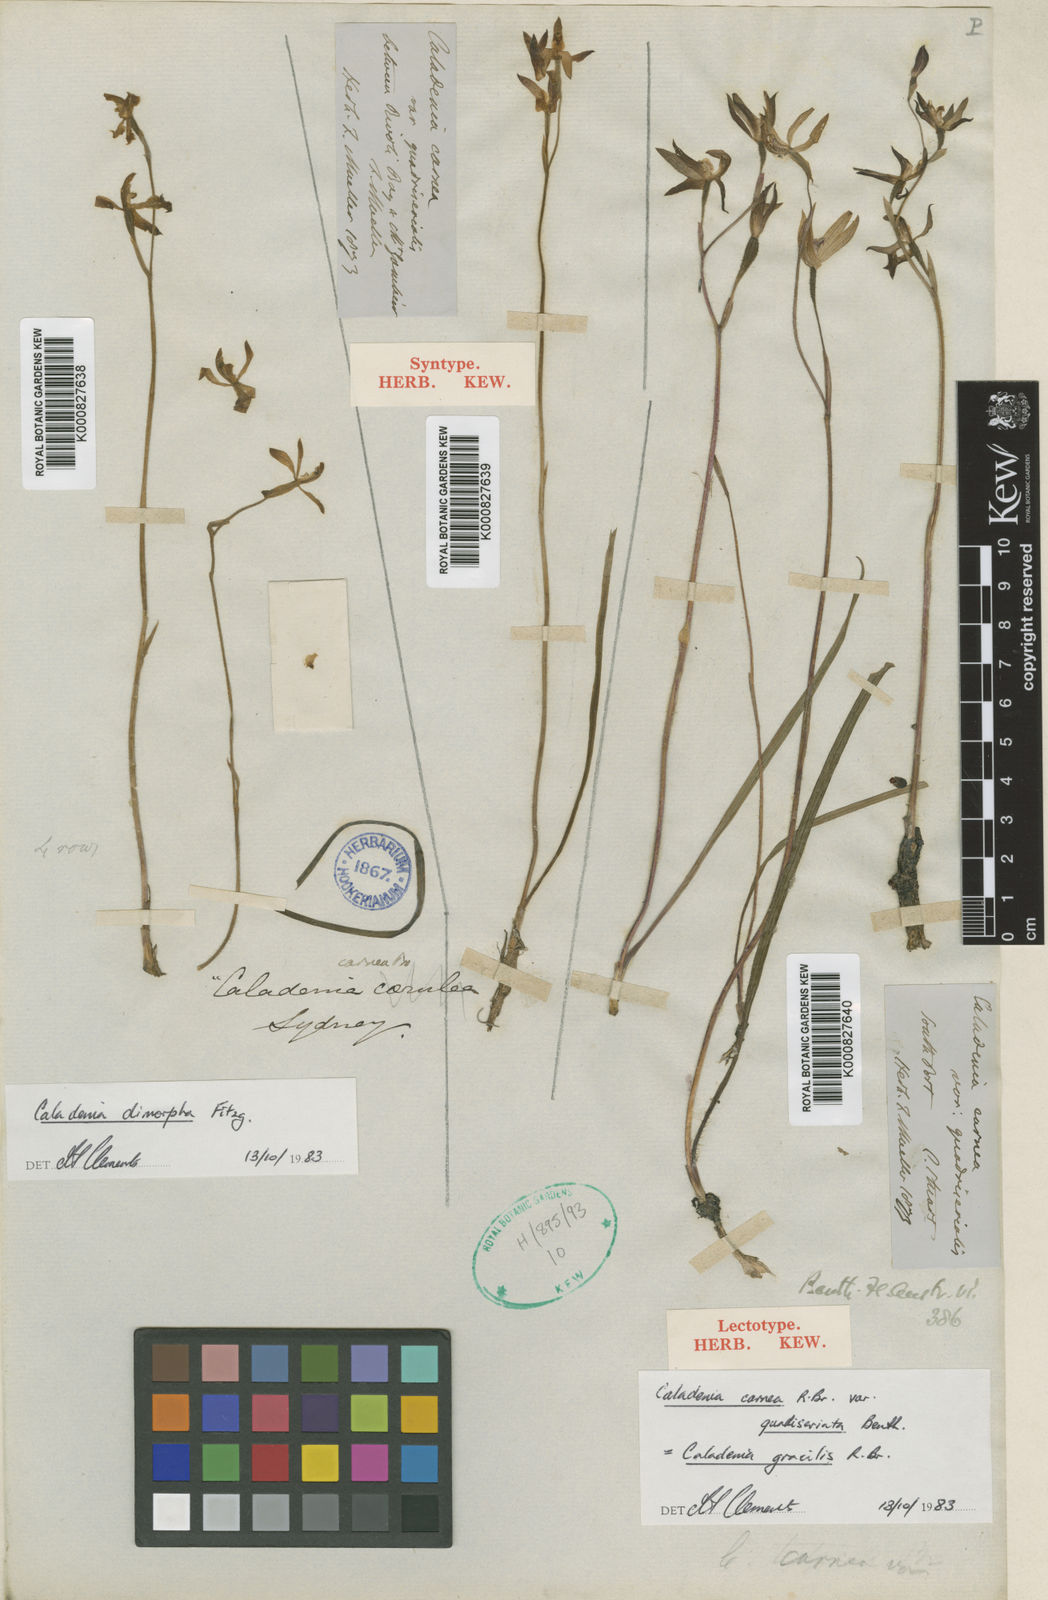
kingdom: Plantae
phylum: Tracheophyta
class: Liliopsida
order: Asparagales
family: Orchidaceae
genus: Caladenia
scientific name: Caladenia gracilis
